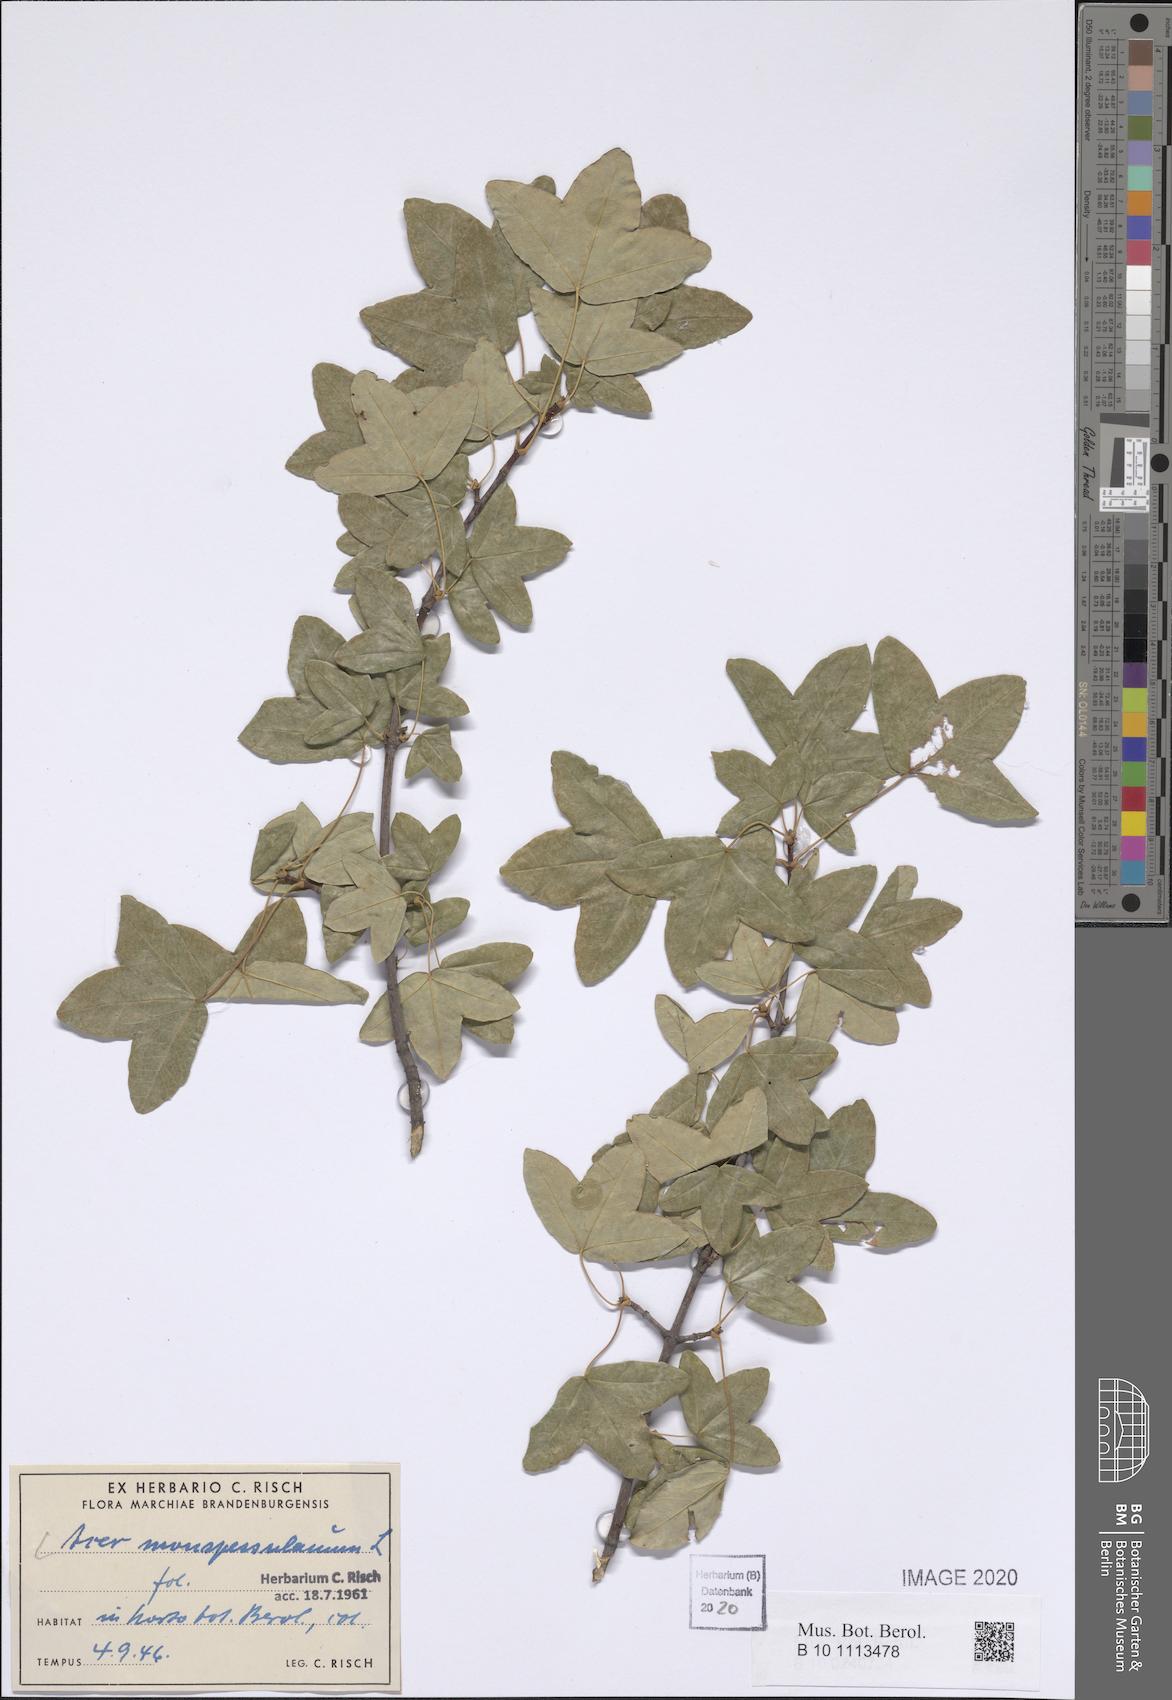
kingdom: Plantae
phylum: Tracheophyta
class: Magnoliopsida
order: Sapindales
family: Sapindaceae
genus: Acer
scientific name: Acer monspessulanum
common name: Montpellier maple
